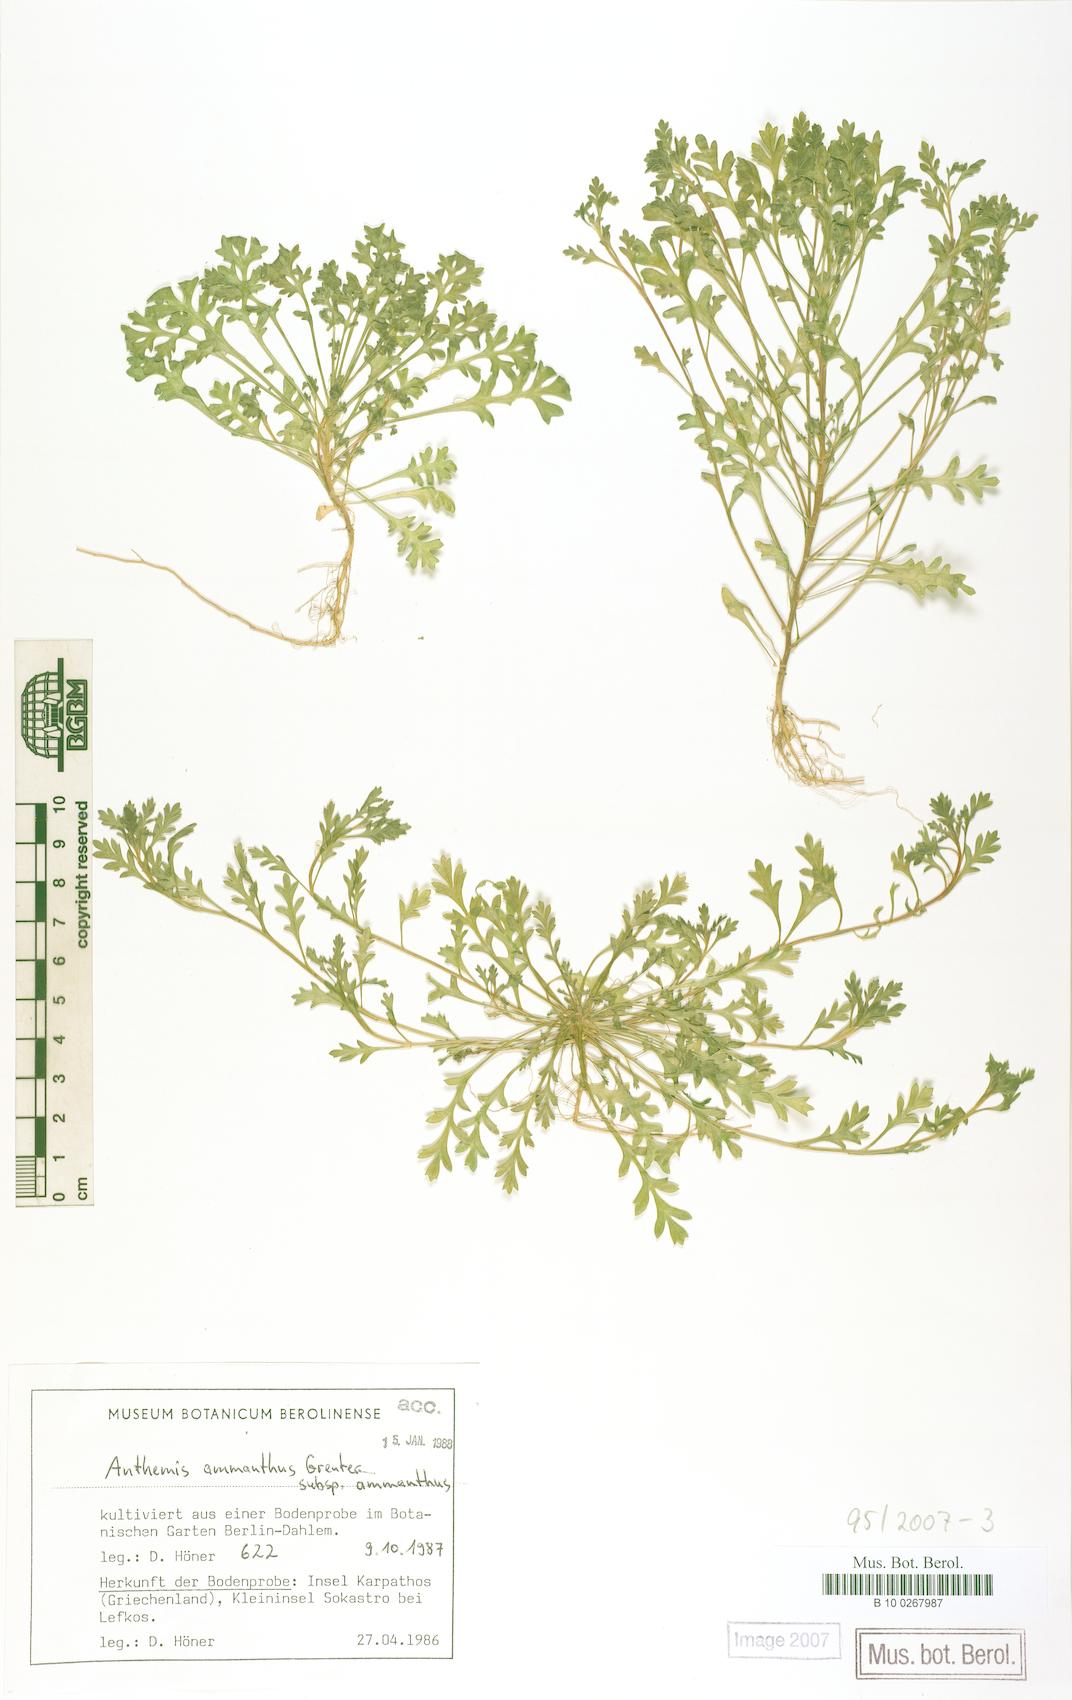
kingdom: Plantae
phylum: Tracheophyta
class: Magnoliopsida
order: Asterales
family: Asteraceae
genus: Anthemis
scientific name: Anthemis ammanthus
